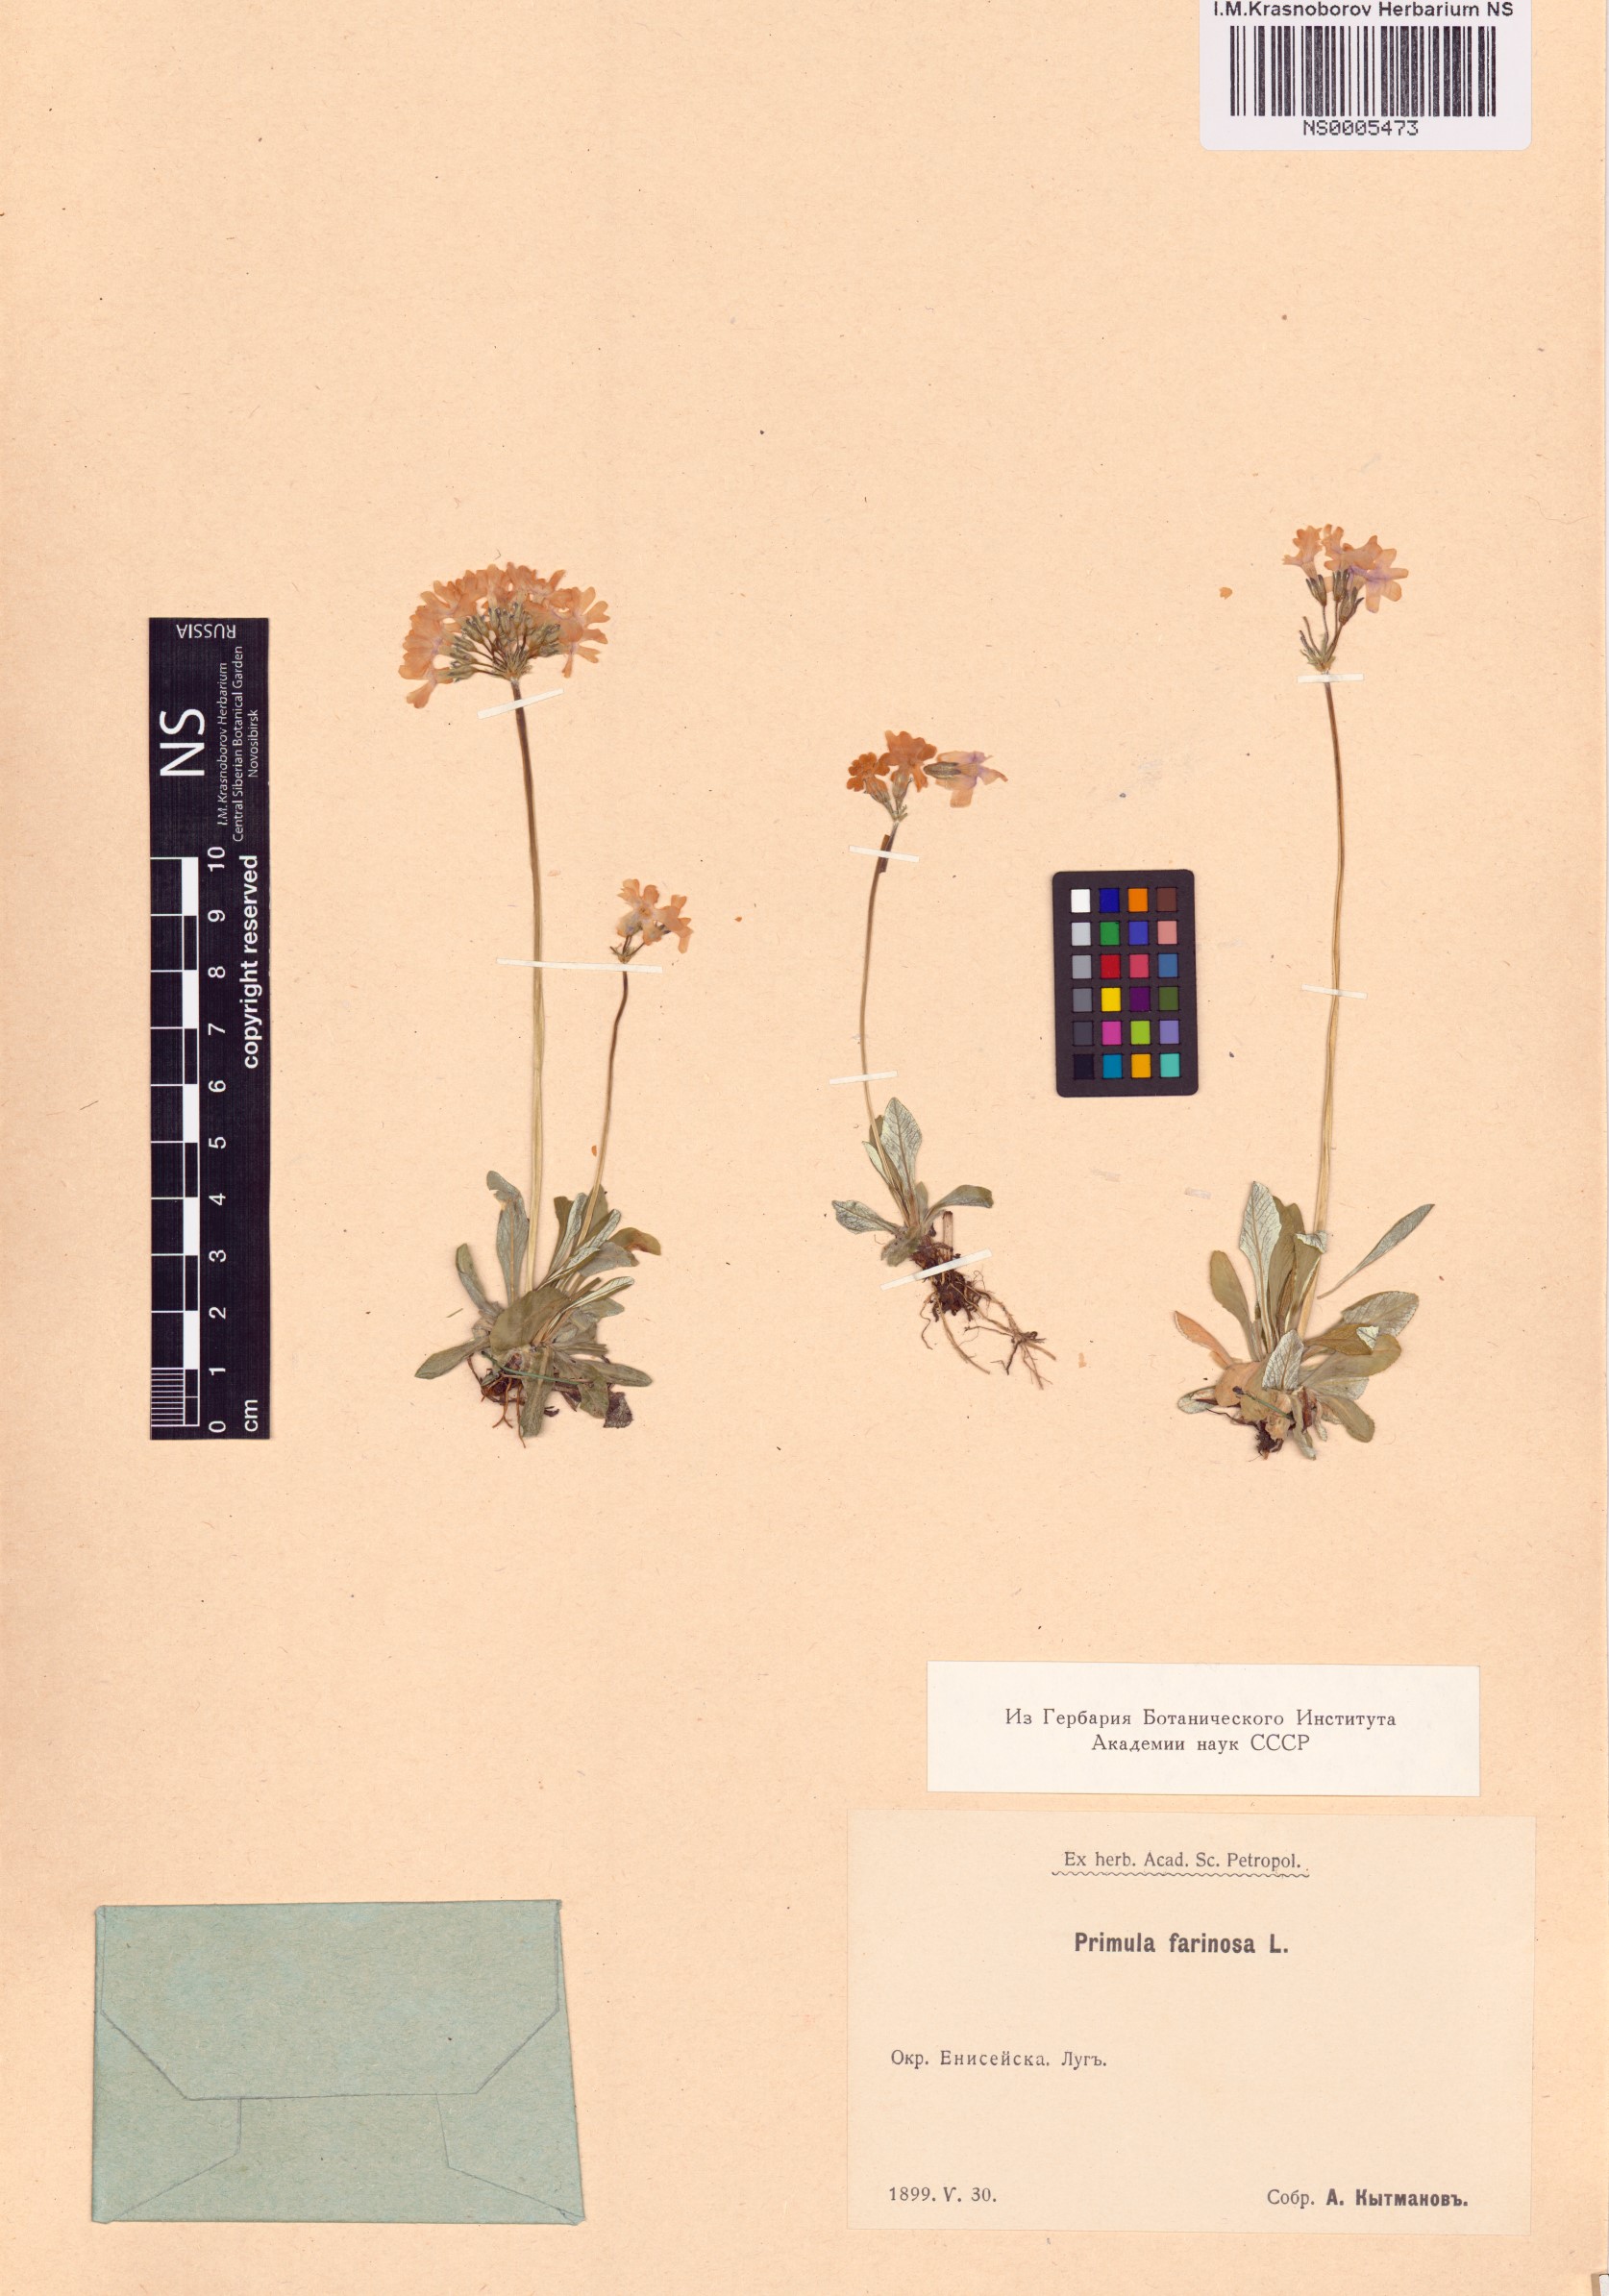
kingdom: Plantae
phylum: Tracheophyta
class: Magnoliopsida
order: Ericales
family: Primulaceae
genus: Primula
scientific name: Primula farinosa
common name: Bird's-eye primrose
